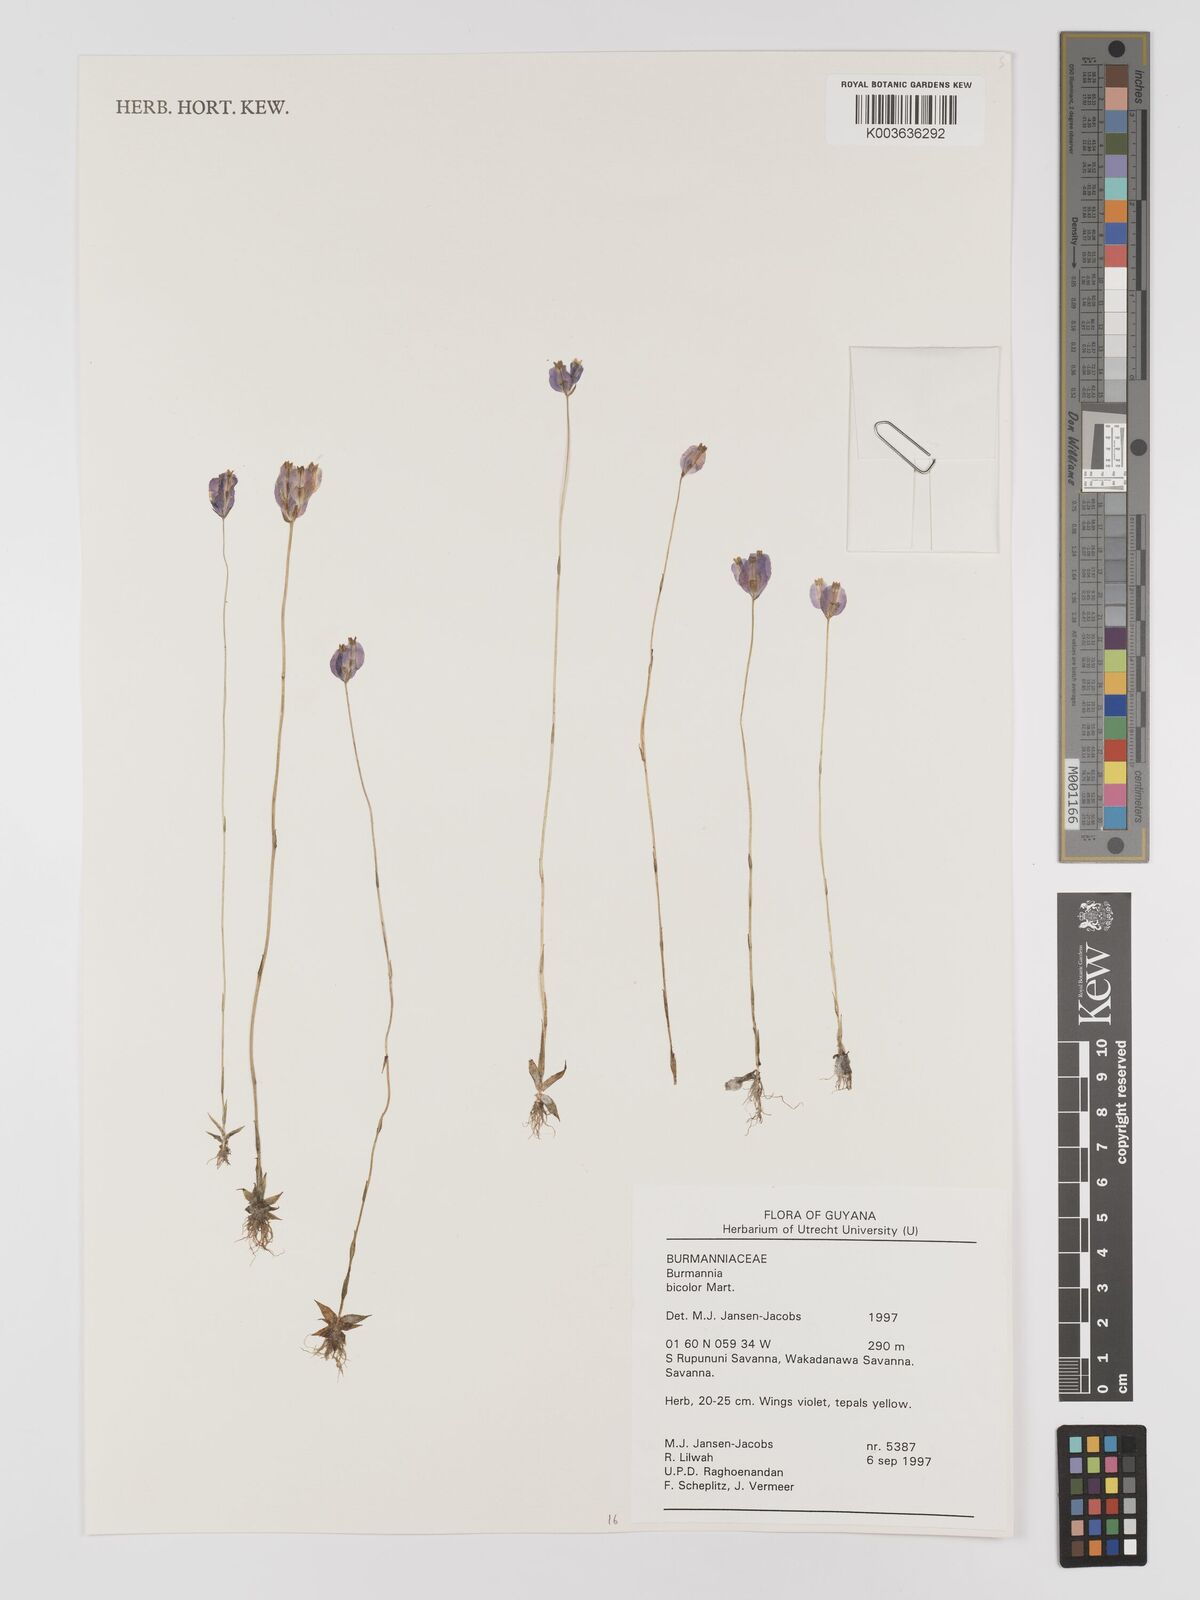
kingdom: Plantae
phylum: Tracheophyta
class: Liliopsida
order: Dioscoreales
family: Burmanniaceae
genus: Burmannia
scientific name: Burmannia bicolor
